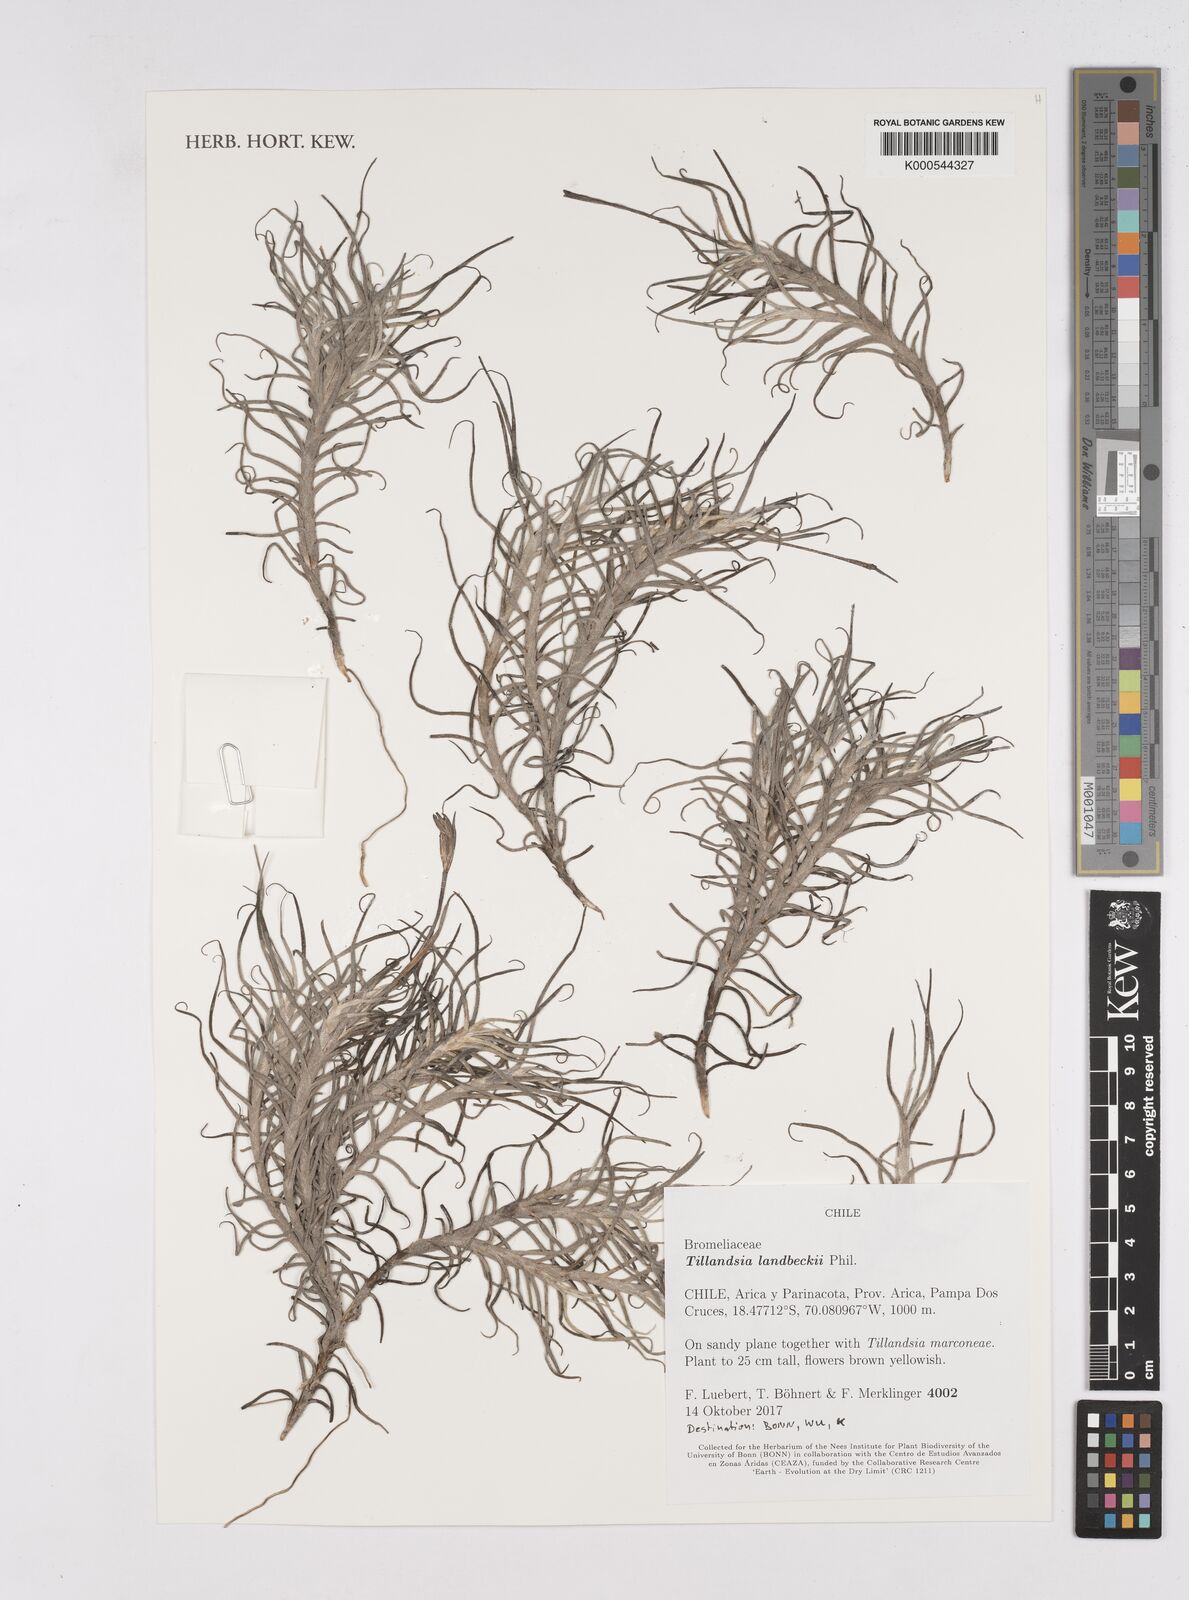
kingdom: Plantae
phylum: Tracheophyta
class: Liliopsida
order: Poales
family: Bromeliaceae
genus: Tillandsia
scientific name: Tillandsia landbeckii
